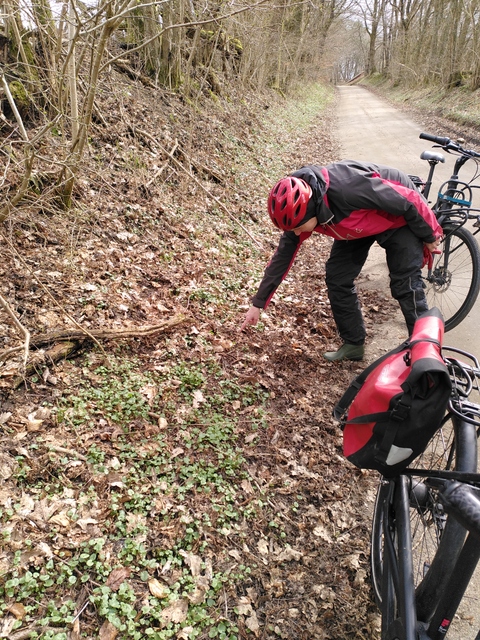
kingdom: Fungi
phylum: Basidiomycota
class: Agaricomycetes
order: Agaricales
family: Tricholomataceae
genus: Melanoleuca
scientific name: Melanoleuca cognata
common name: gyldengrå munkehat
